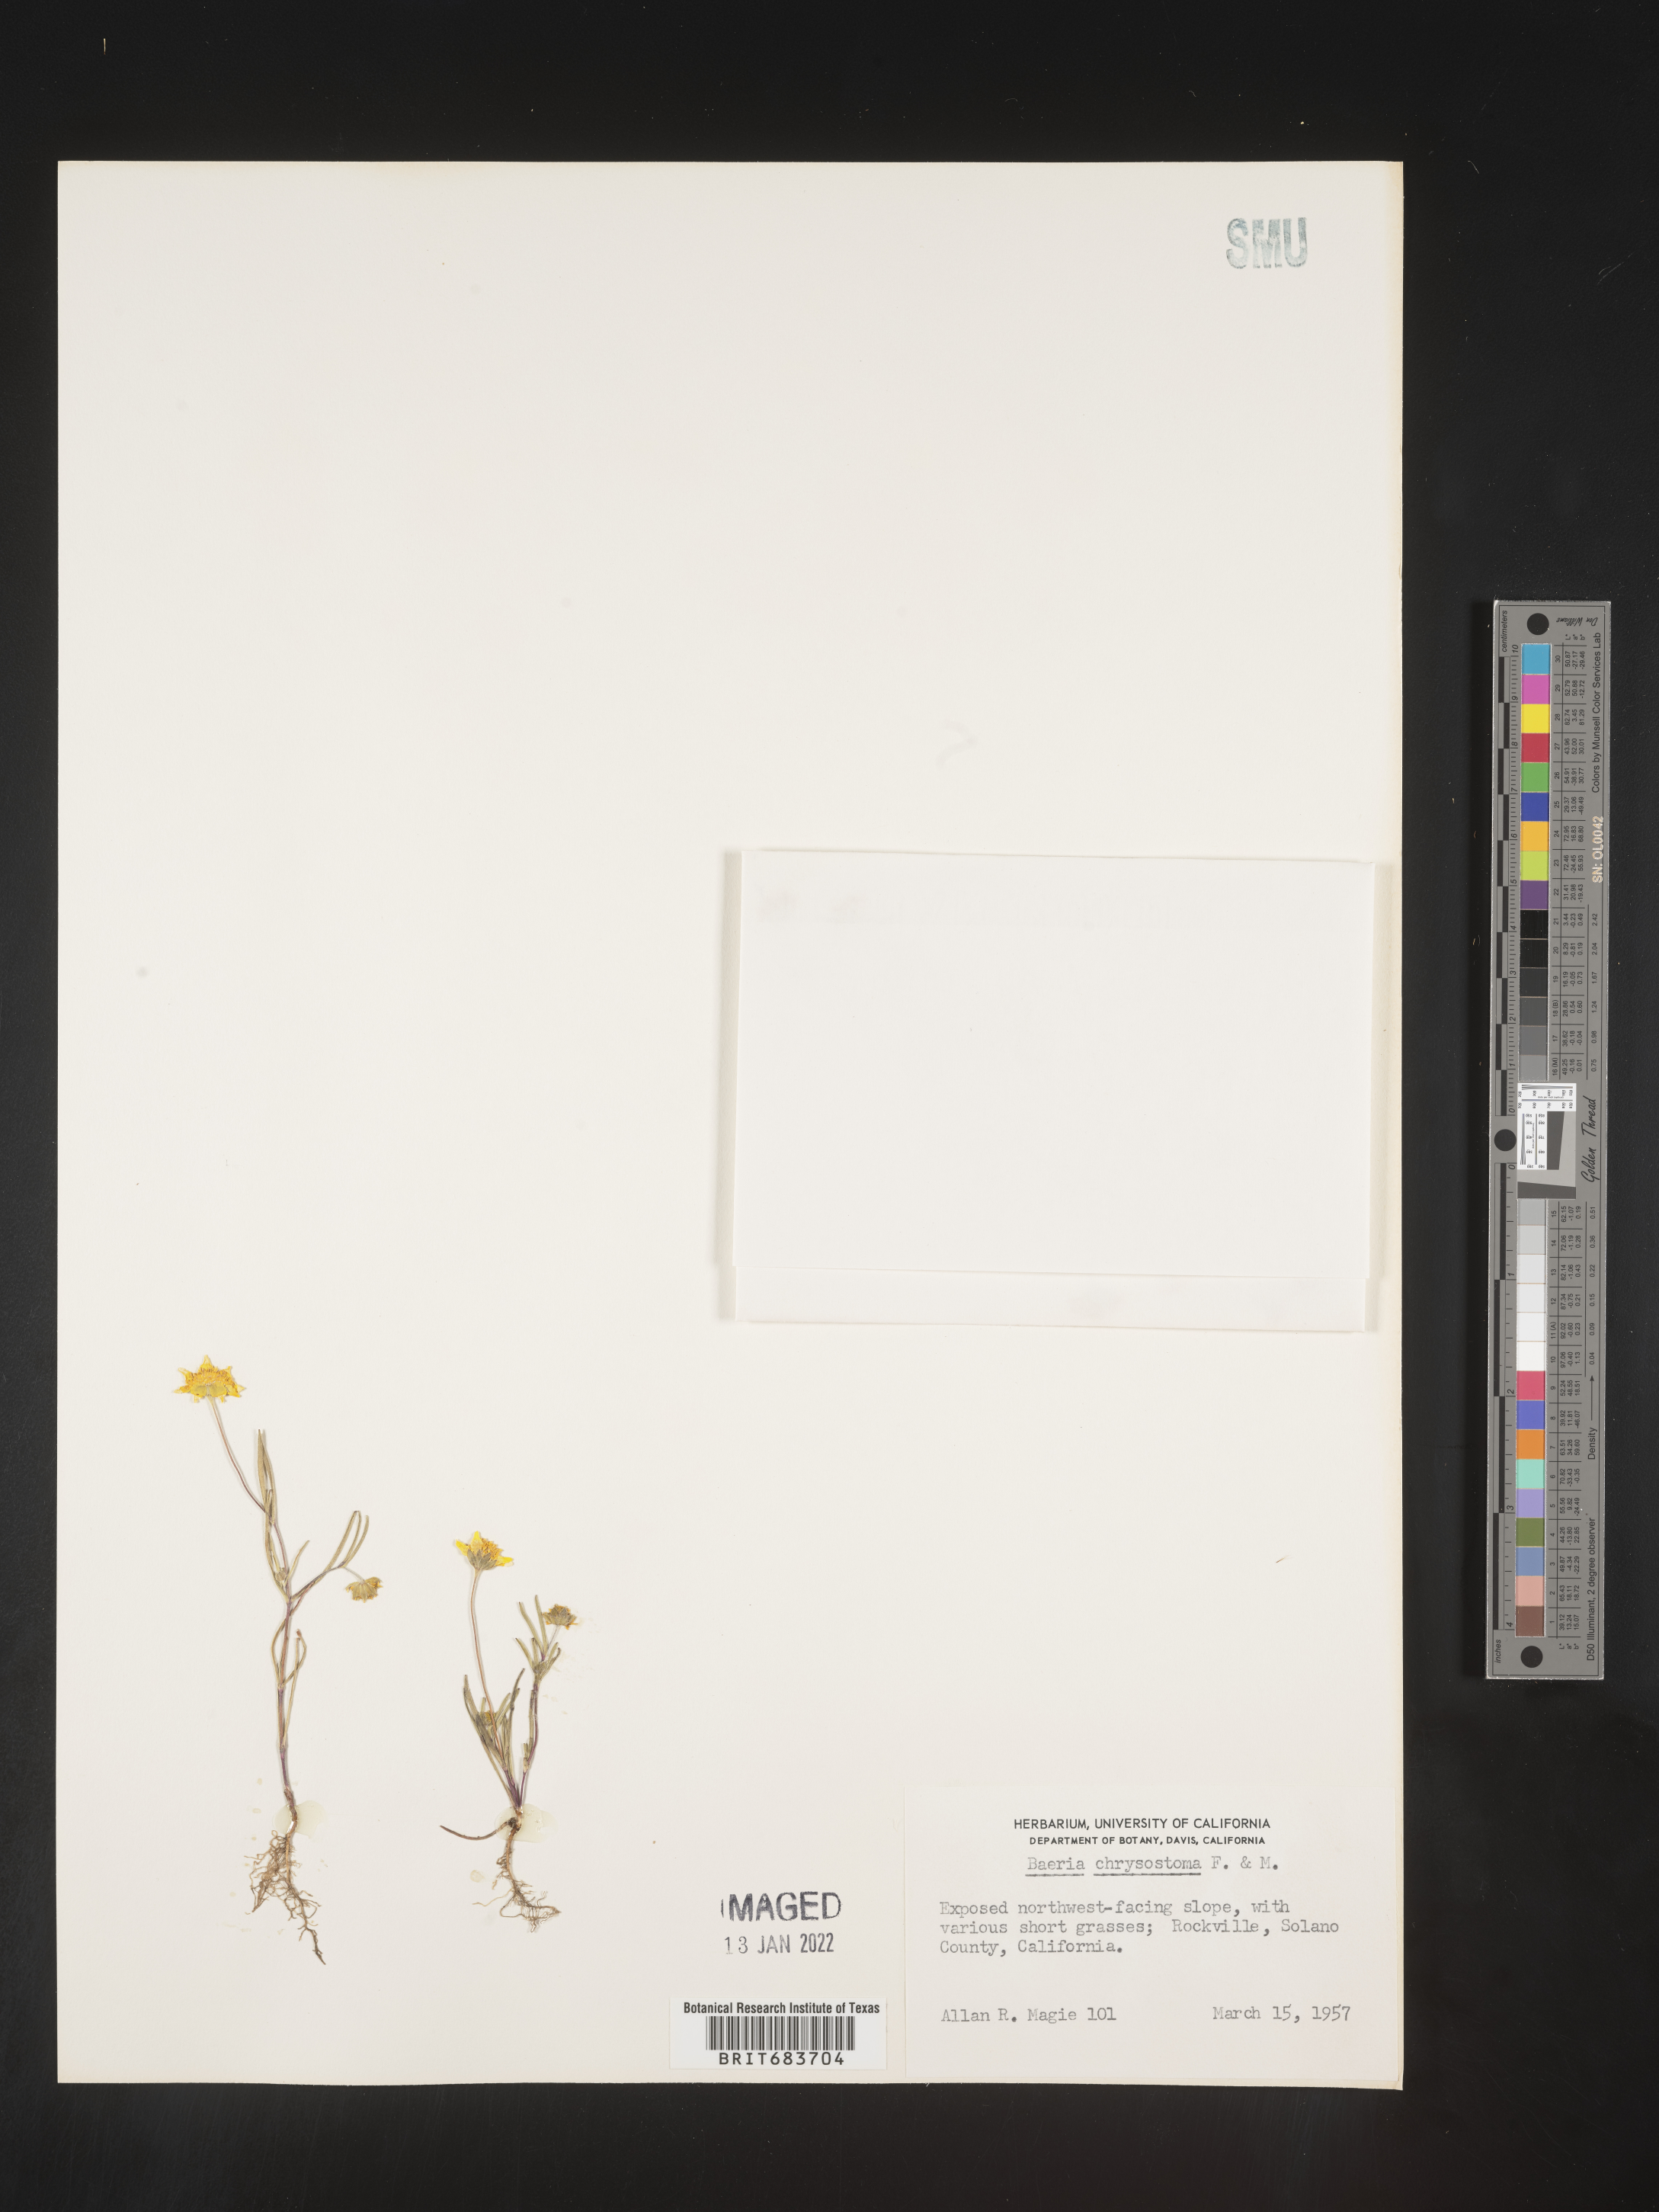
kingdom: Plantae
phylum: Tracheophyta
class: Magnoliopsida
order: Asterales
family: Asteraceae
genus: Lasthenia
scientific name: Lasthenia
